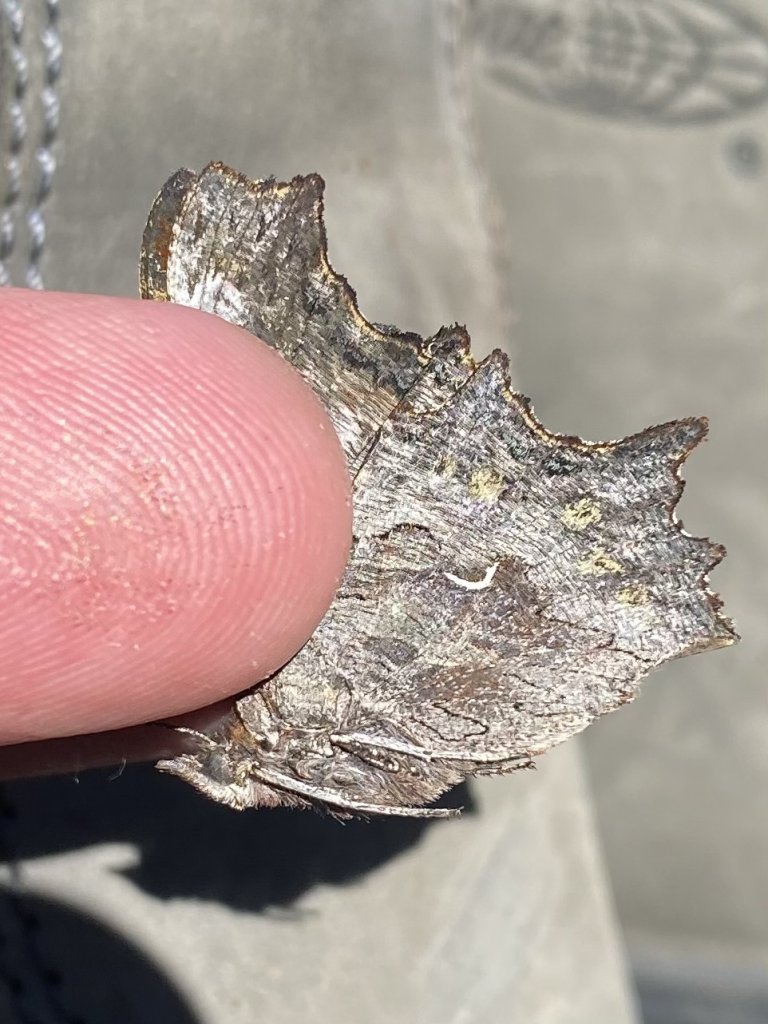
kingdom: Animalia
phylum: Arthropoda
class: Insecta
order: Lepidoptera
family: Nymphalidae
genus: Polygonia
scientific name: Polygonia faunus
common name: Green Comma
